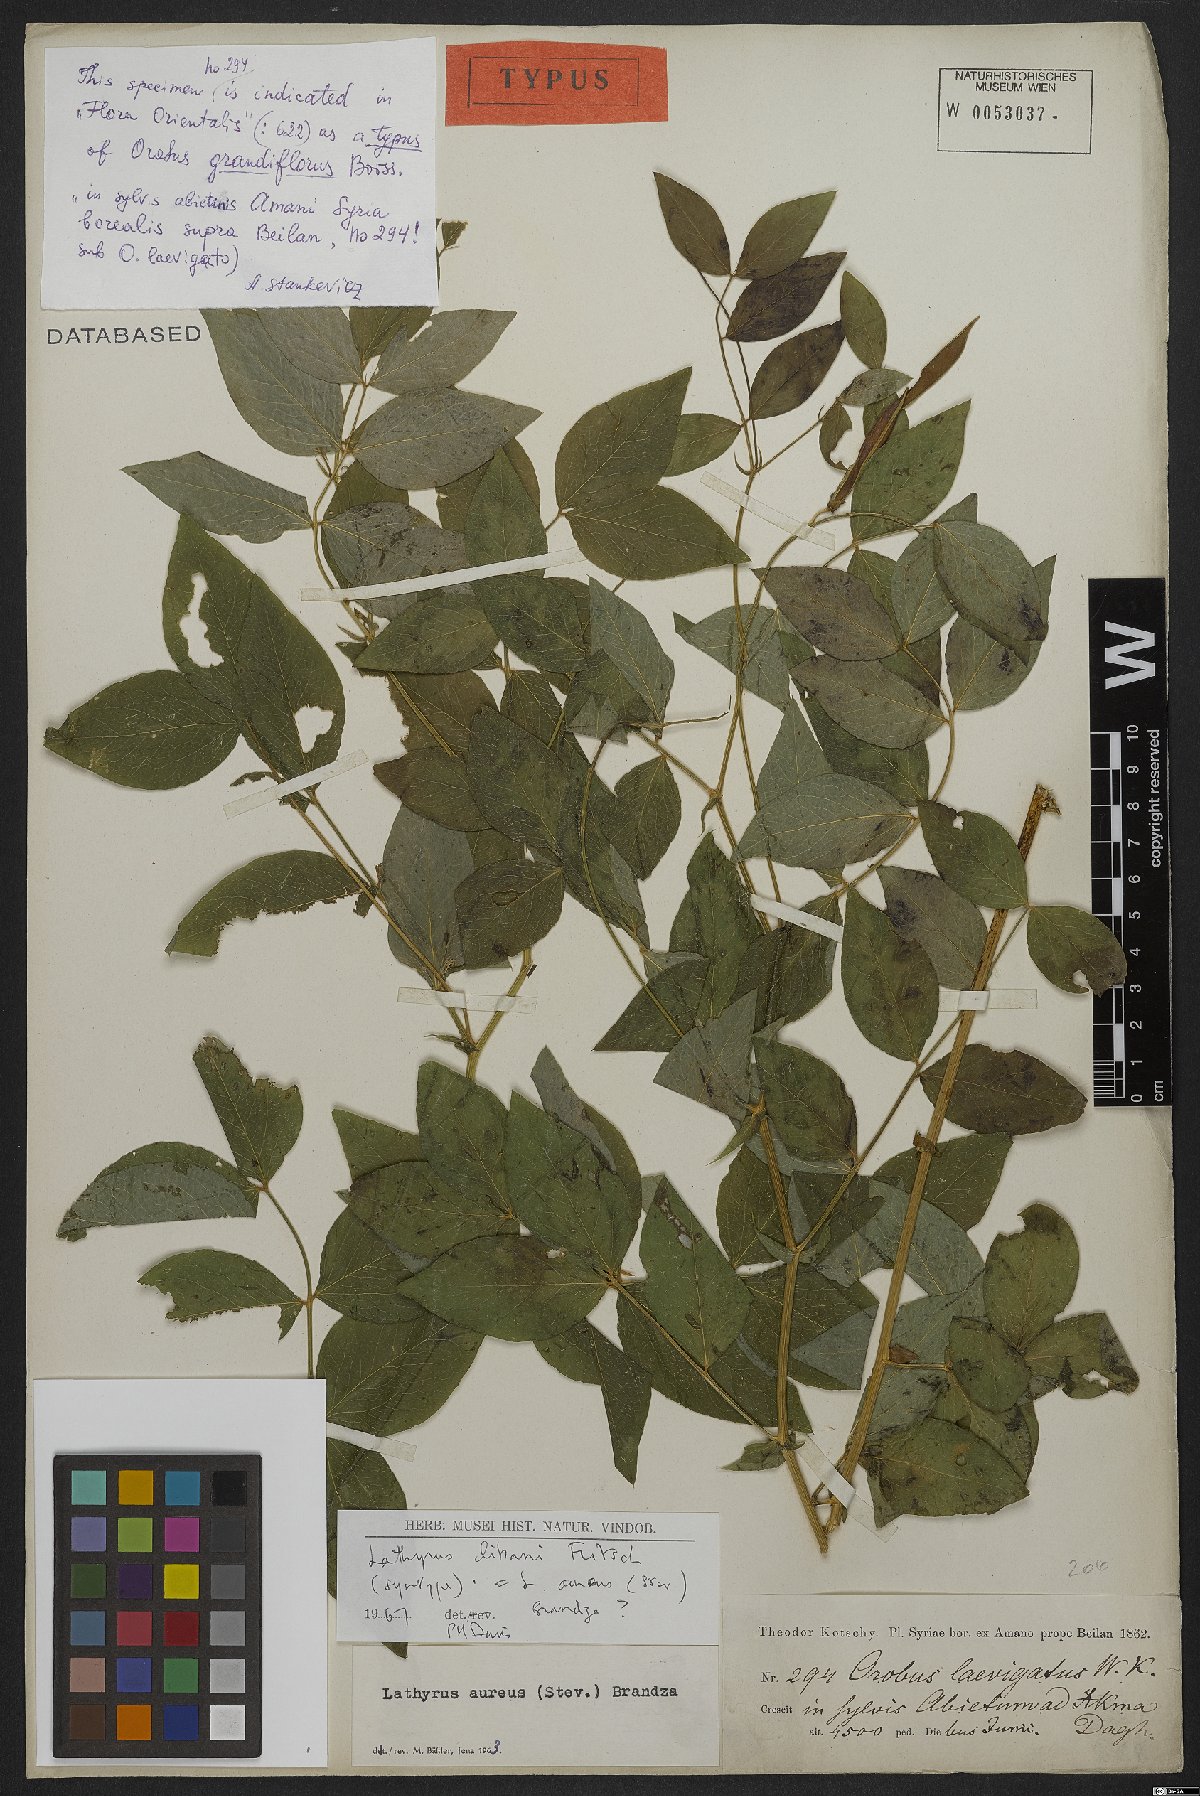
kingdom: Plantae
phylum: Tracheophyta
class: Magnoliopsida
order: Fabales
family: Fabaceae
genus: Lathyrus
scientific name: Lathyrus aureus
